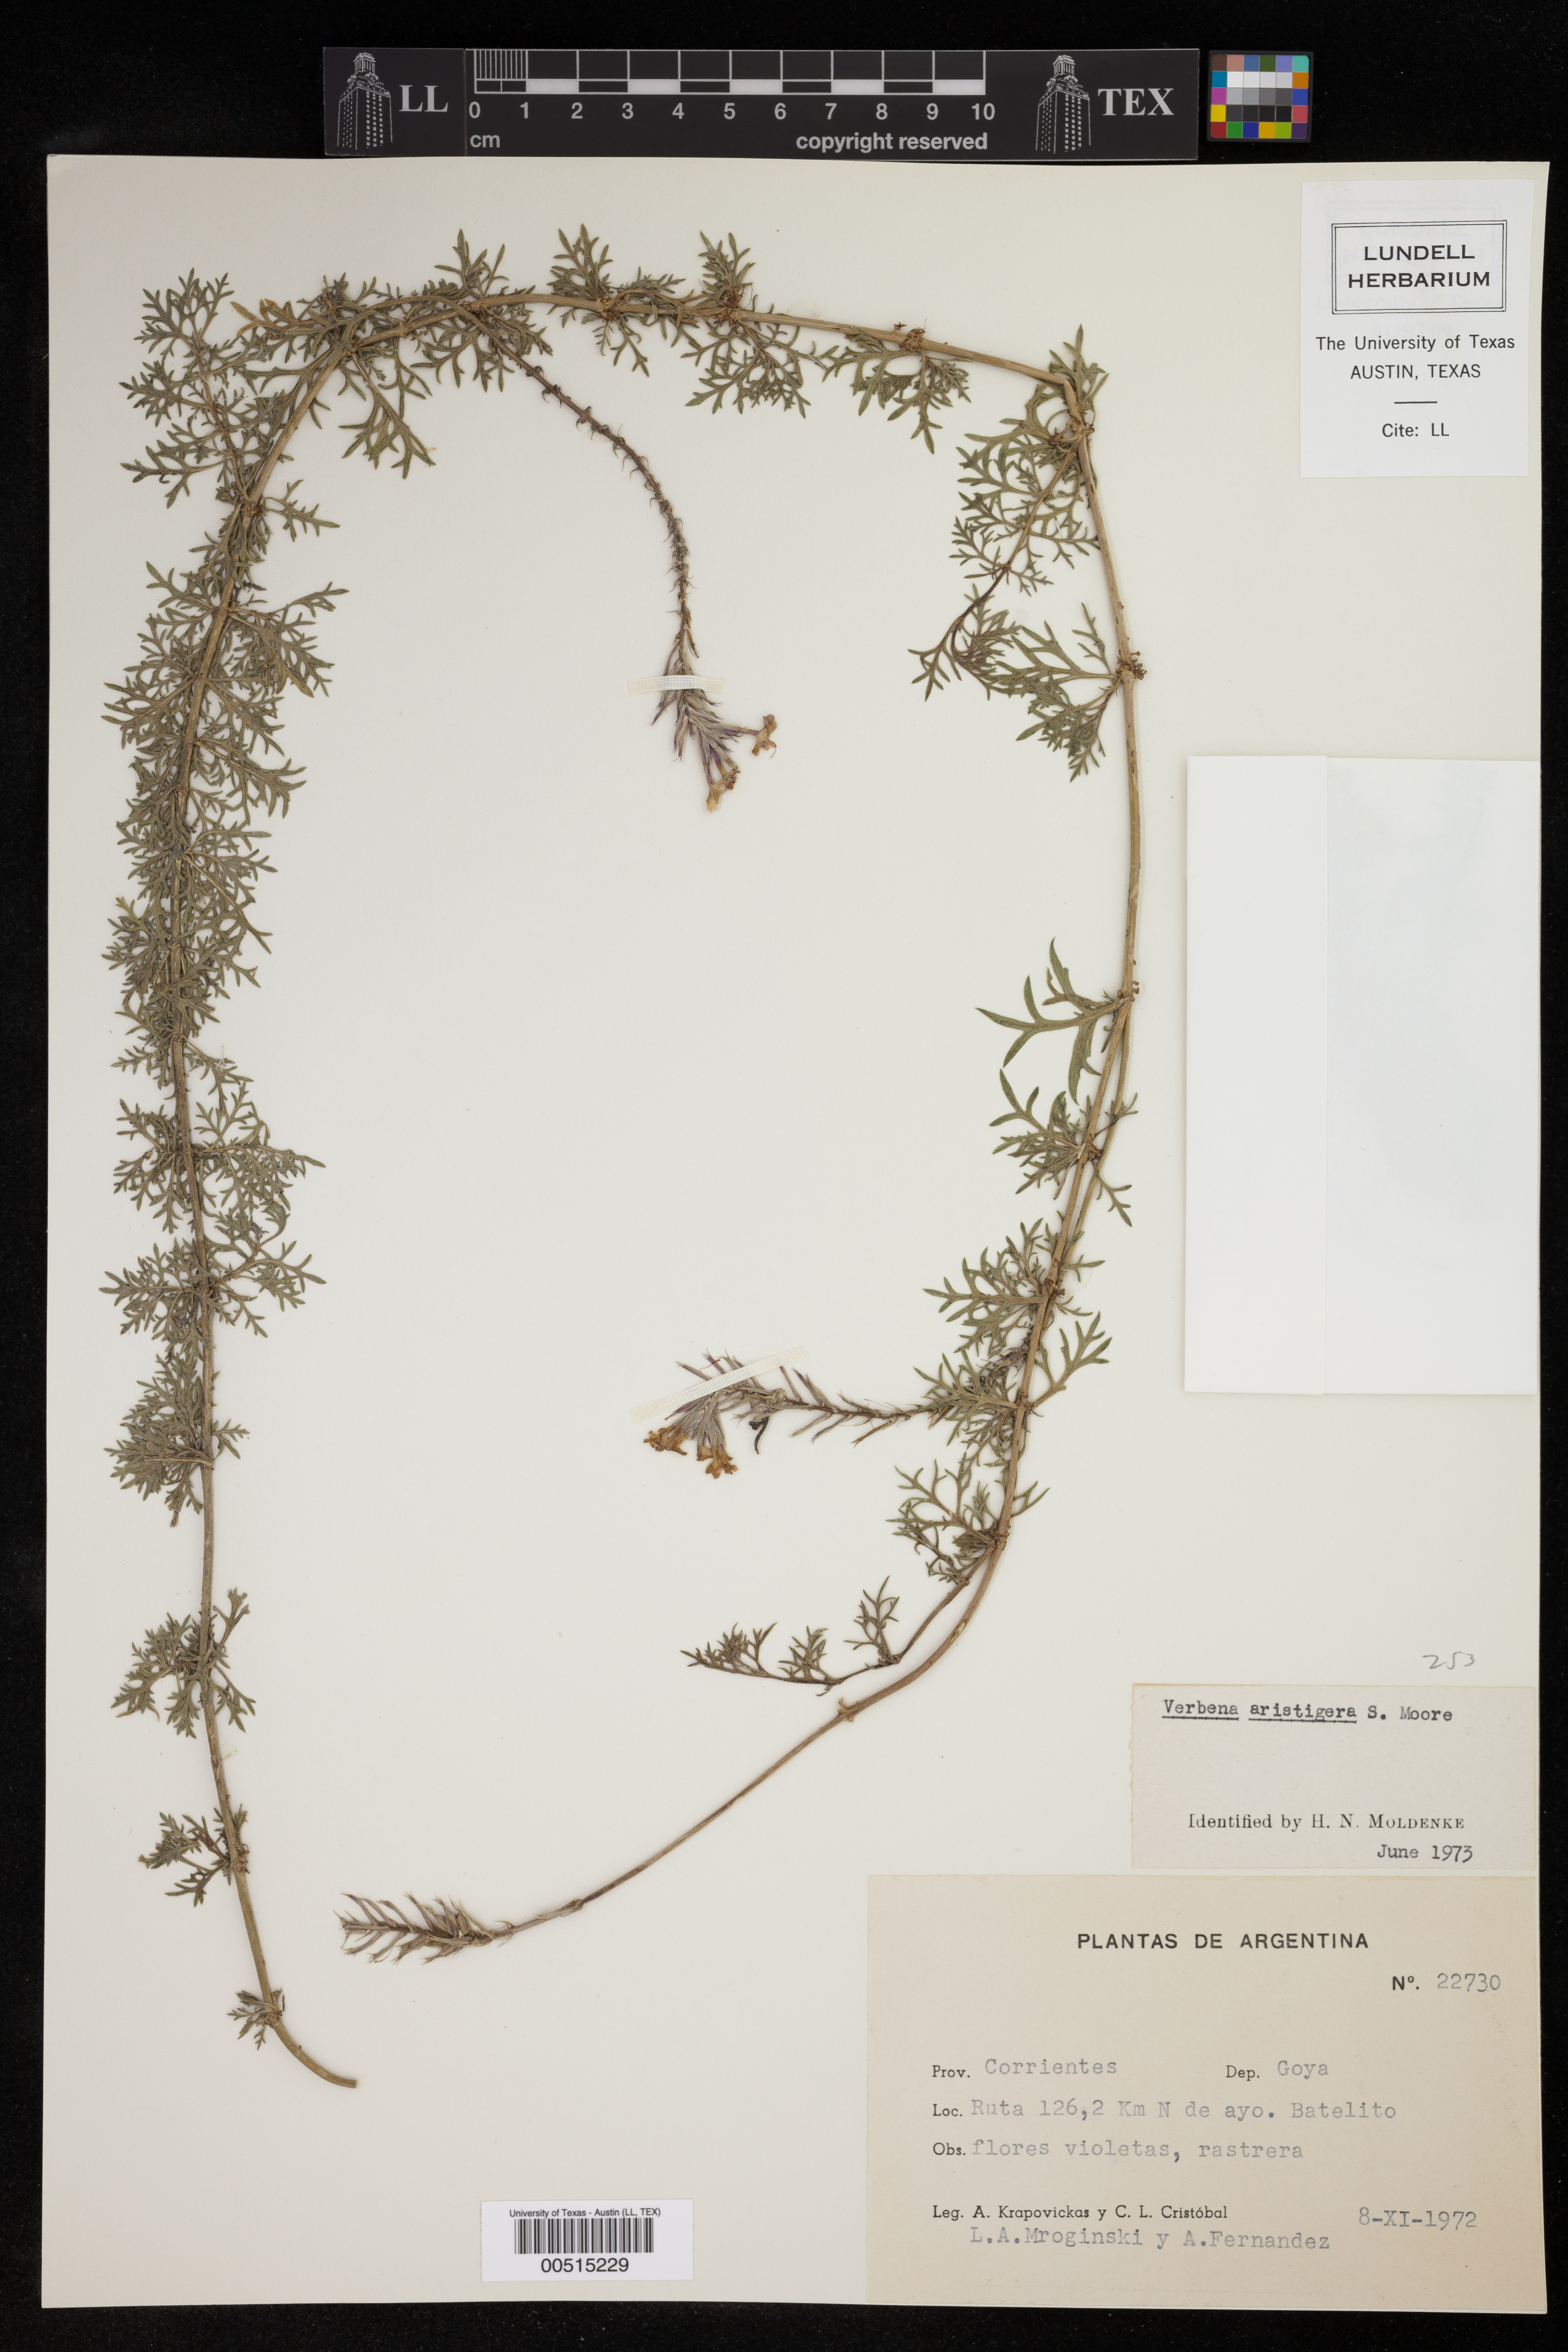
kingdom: Plantae
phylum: Tracheophyta
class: Magnoliopsida
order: Lamiales
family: Verbenaceae
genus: Verbena
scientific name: Verbena aristigera
